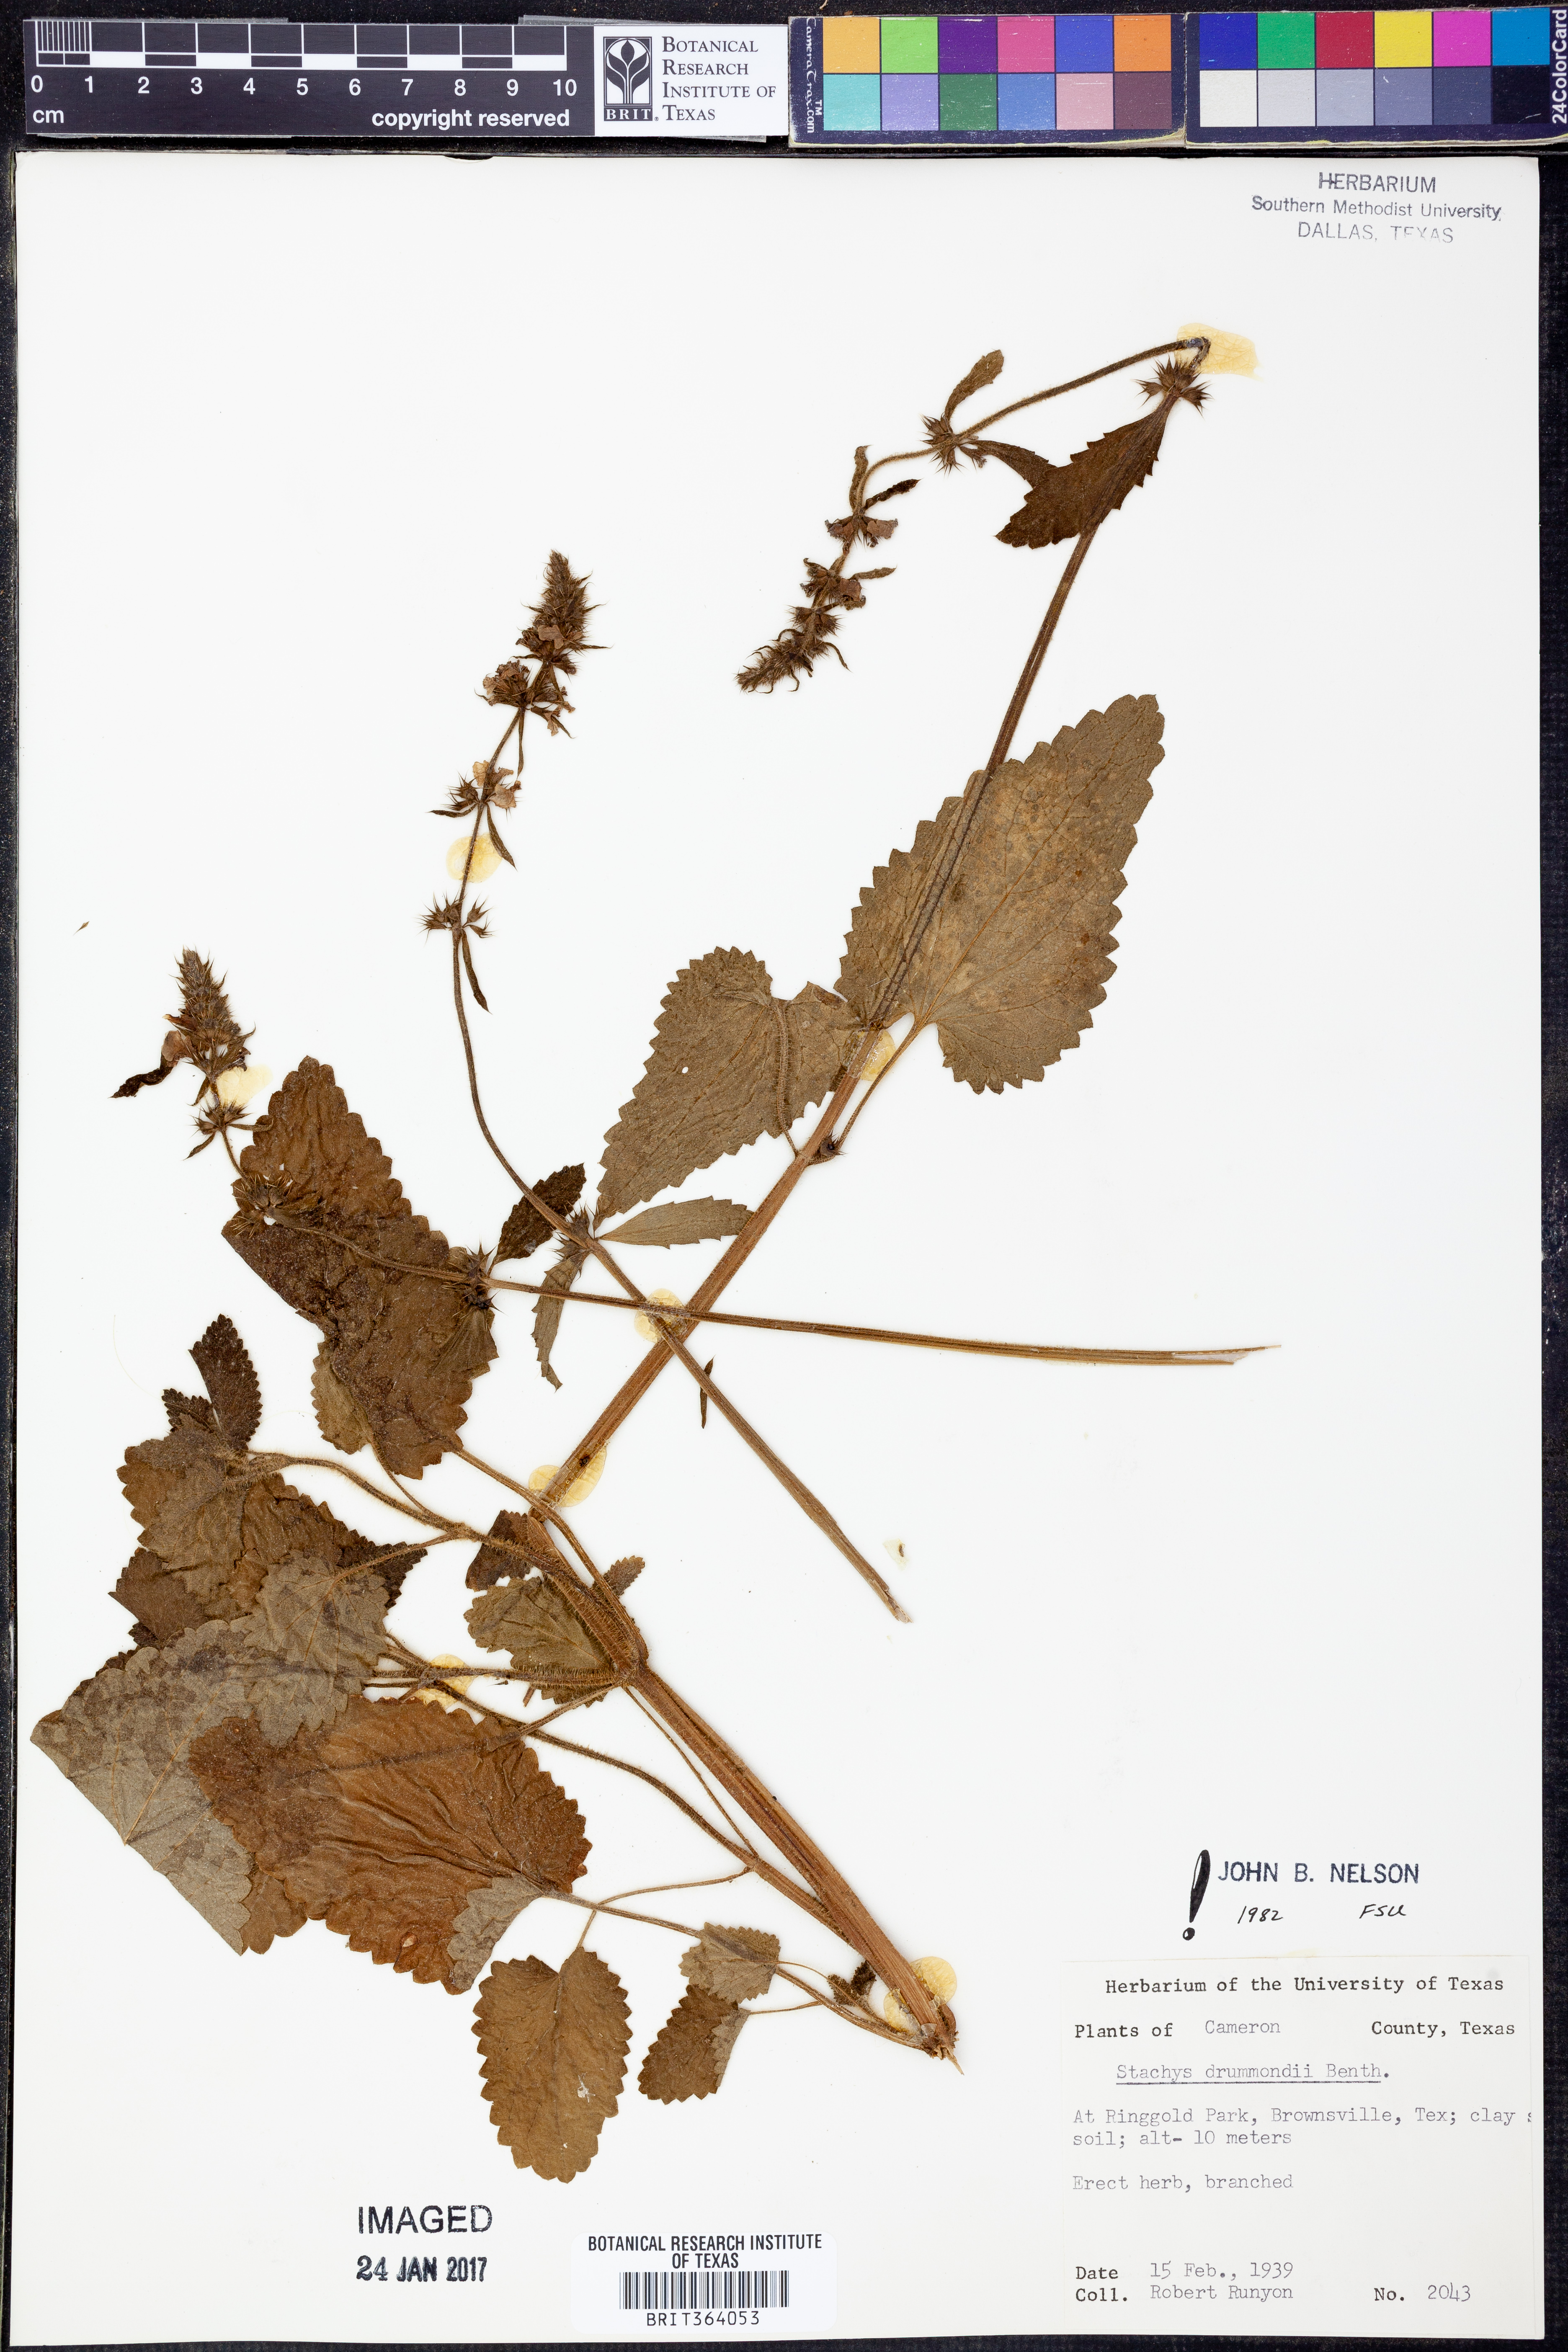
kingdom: Plantae
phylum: Tracheophyta
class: Magnoliopsida
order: Lamiales
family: Lamiaceae
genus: Stachys
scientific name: Stachys drummondii
